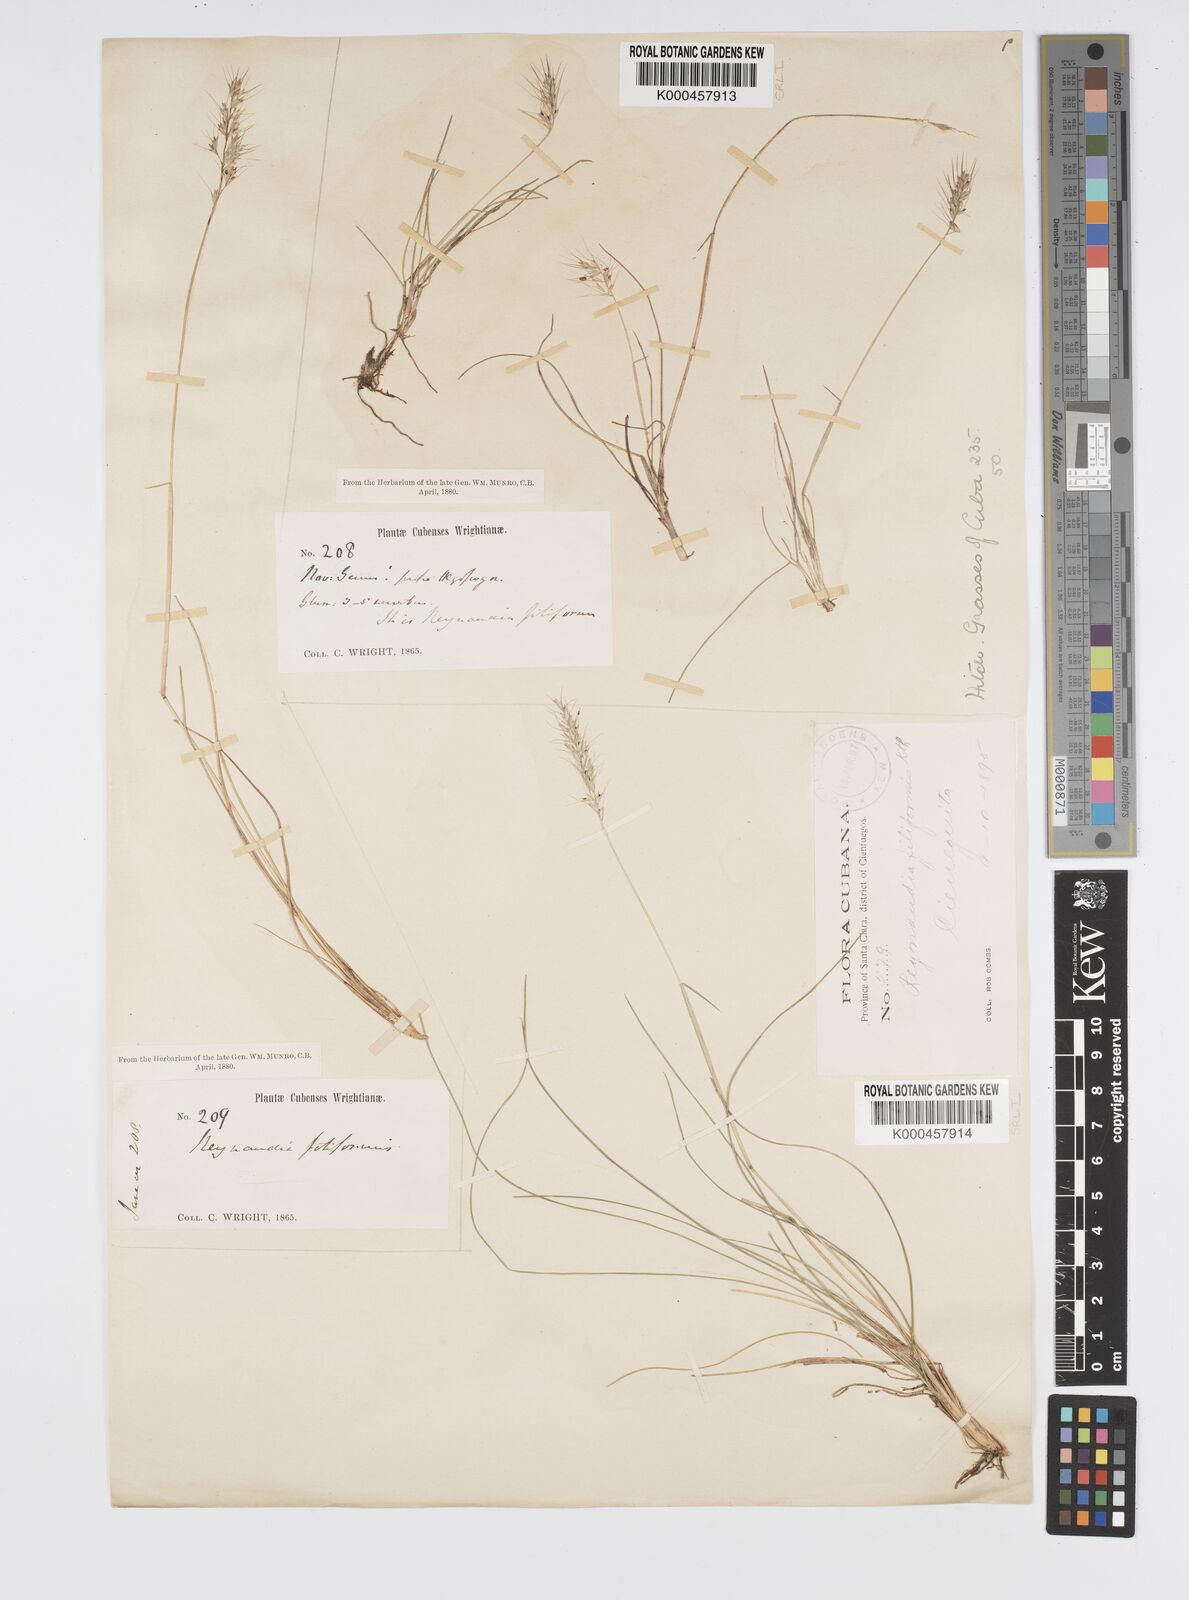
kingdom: Plantae
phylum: Tracheophyta
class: Liliopsida
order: Poales
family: Poaceae
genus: Reynaudia
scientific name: Reynaudia filiformis
